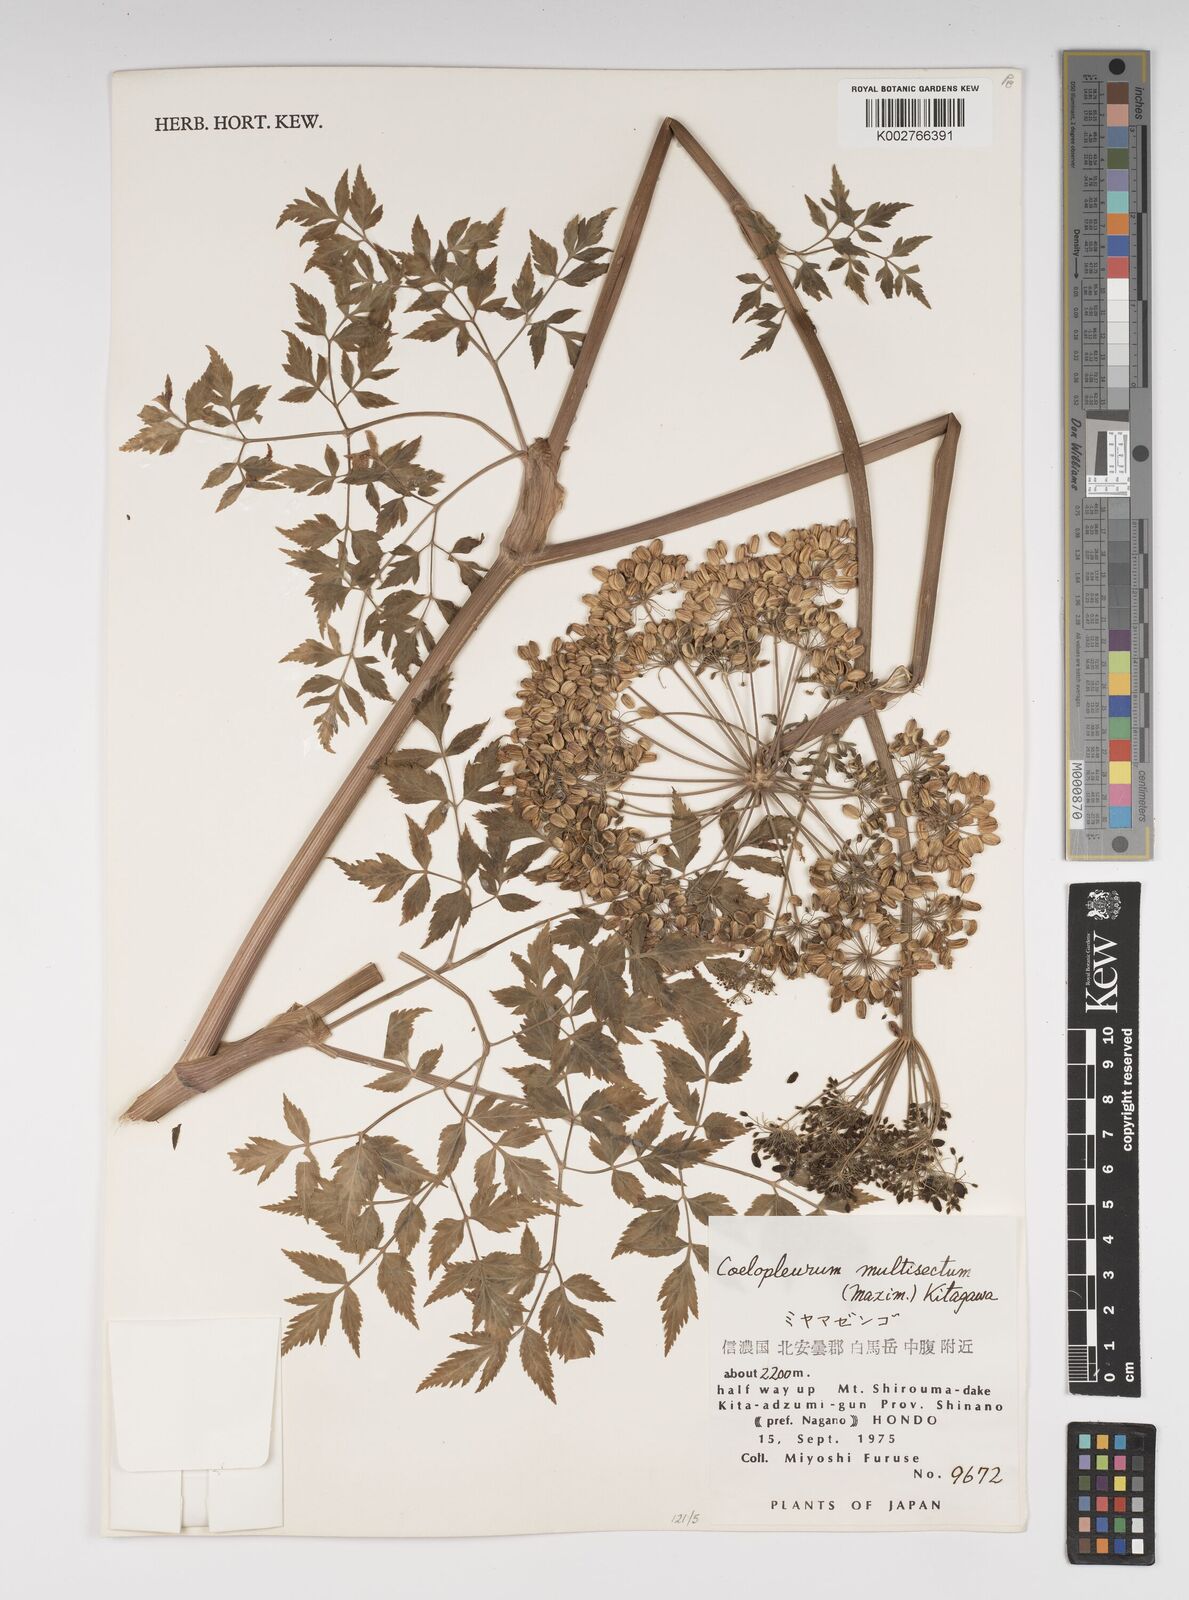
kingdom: Plantae
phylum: Tracheophyta
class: Magnoliopsida
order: Apiales
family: Apiaceae
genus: Angelica
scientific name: Angelica
